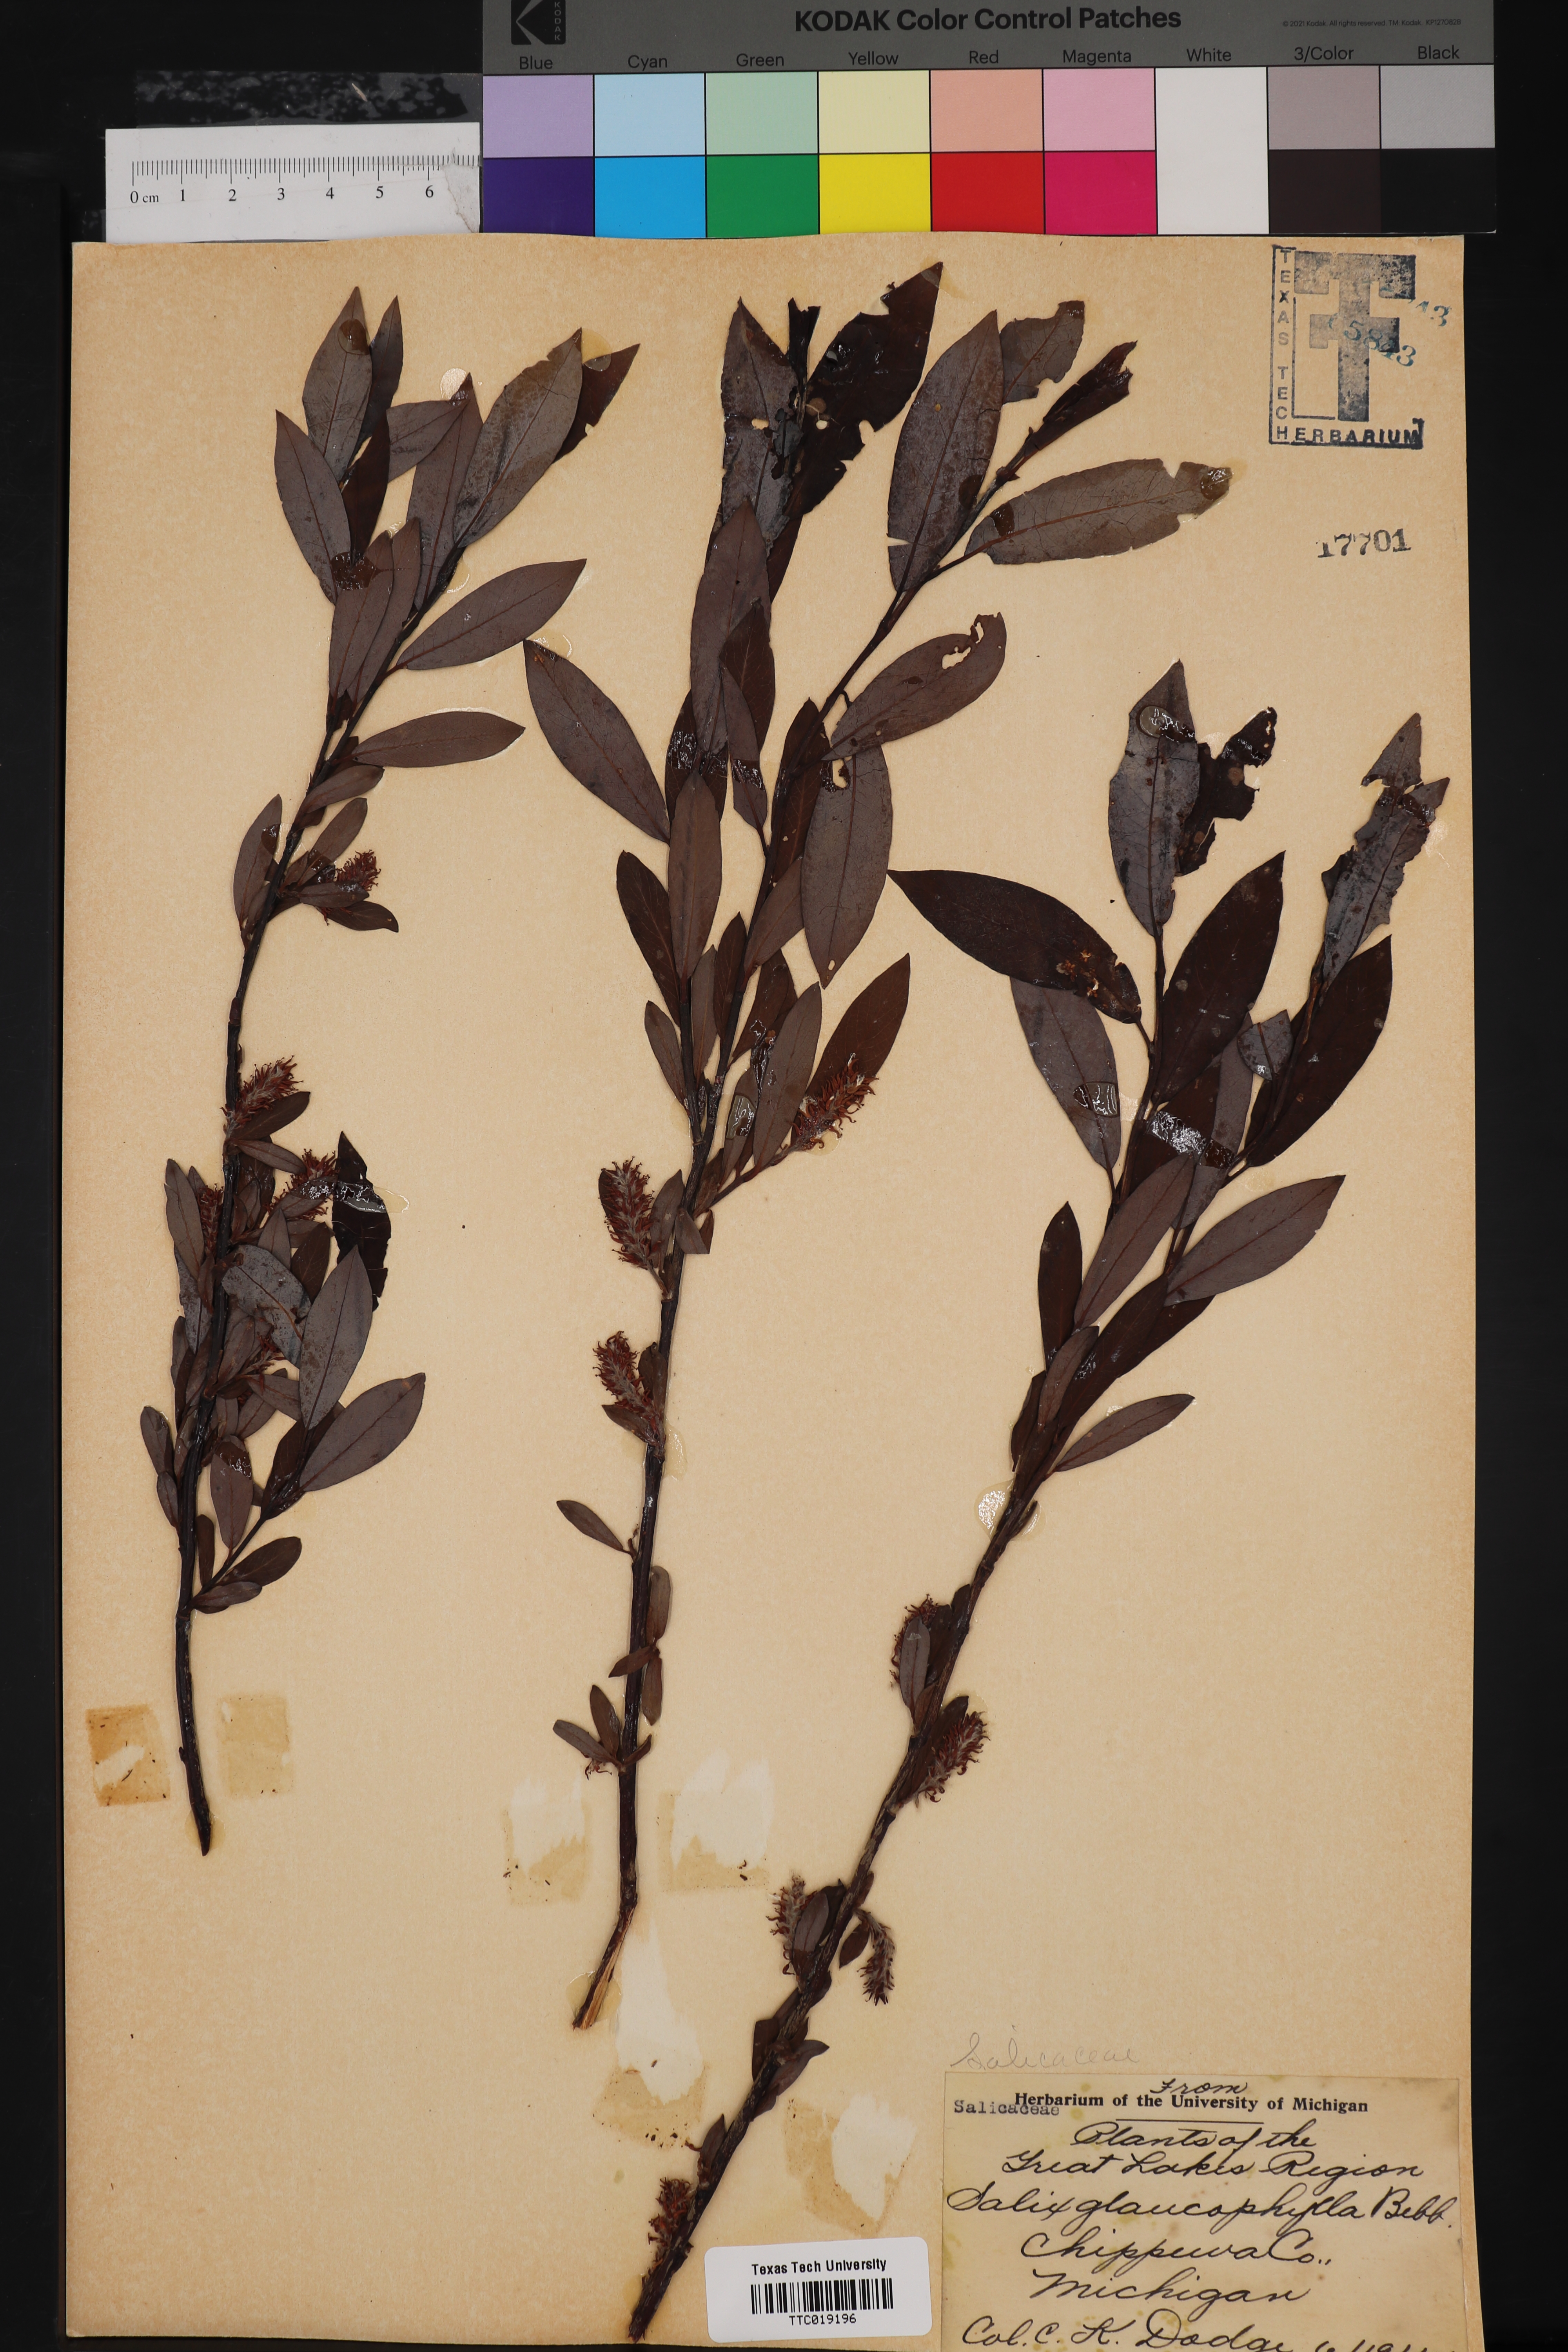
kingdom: Plantae
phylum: Tracheophyta
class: Magnoliopsida
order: Malpighiales
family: Salicaceae
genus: Salix
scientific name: Salix acmophylla
